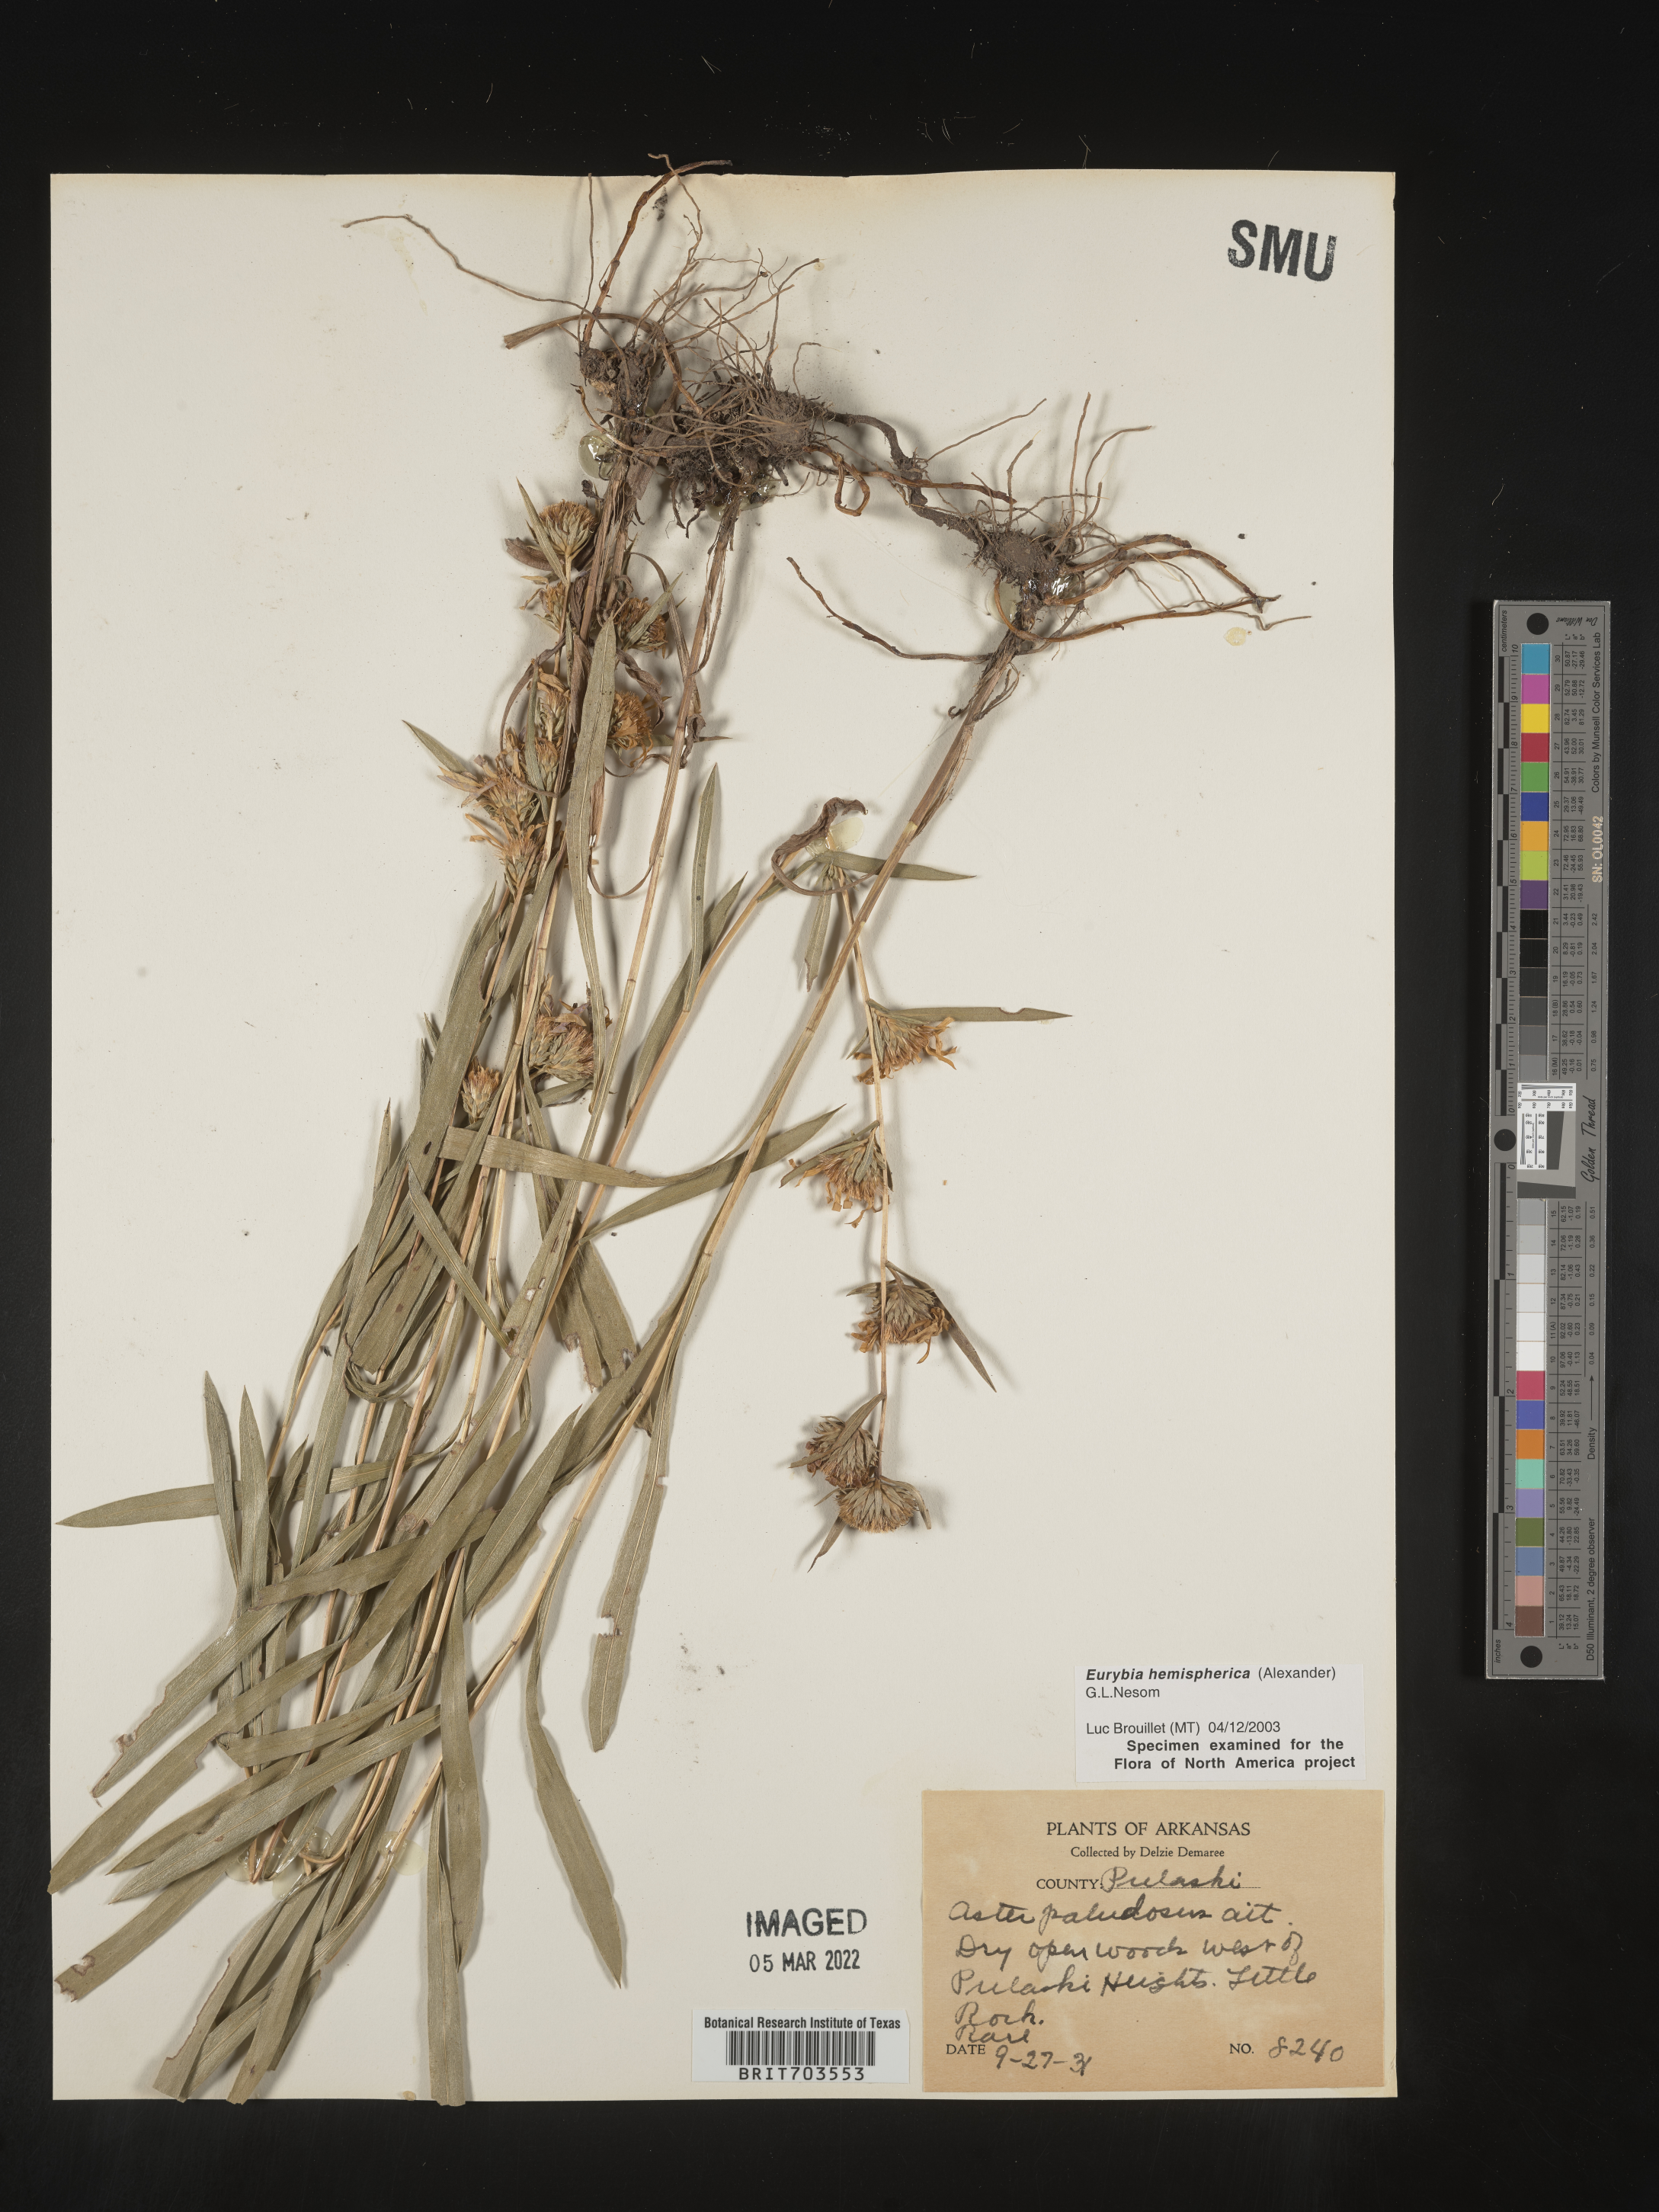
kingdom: Plantae
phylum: Tracheophyta
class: Magnoliopsida
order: Asterales
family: Asteraceae
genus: Eurybia
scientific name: Eurybia hemispherica
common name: Showy aster
